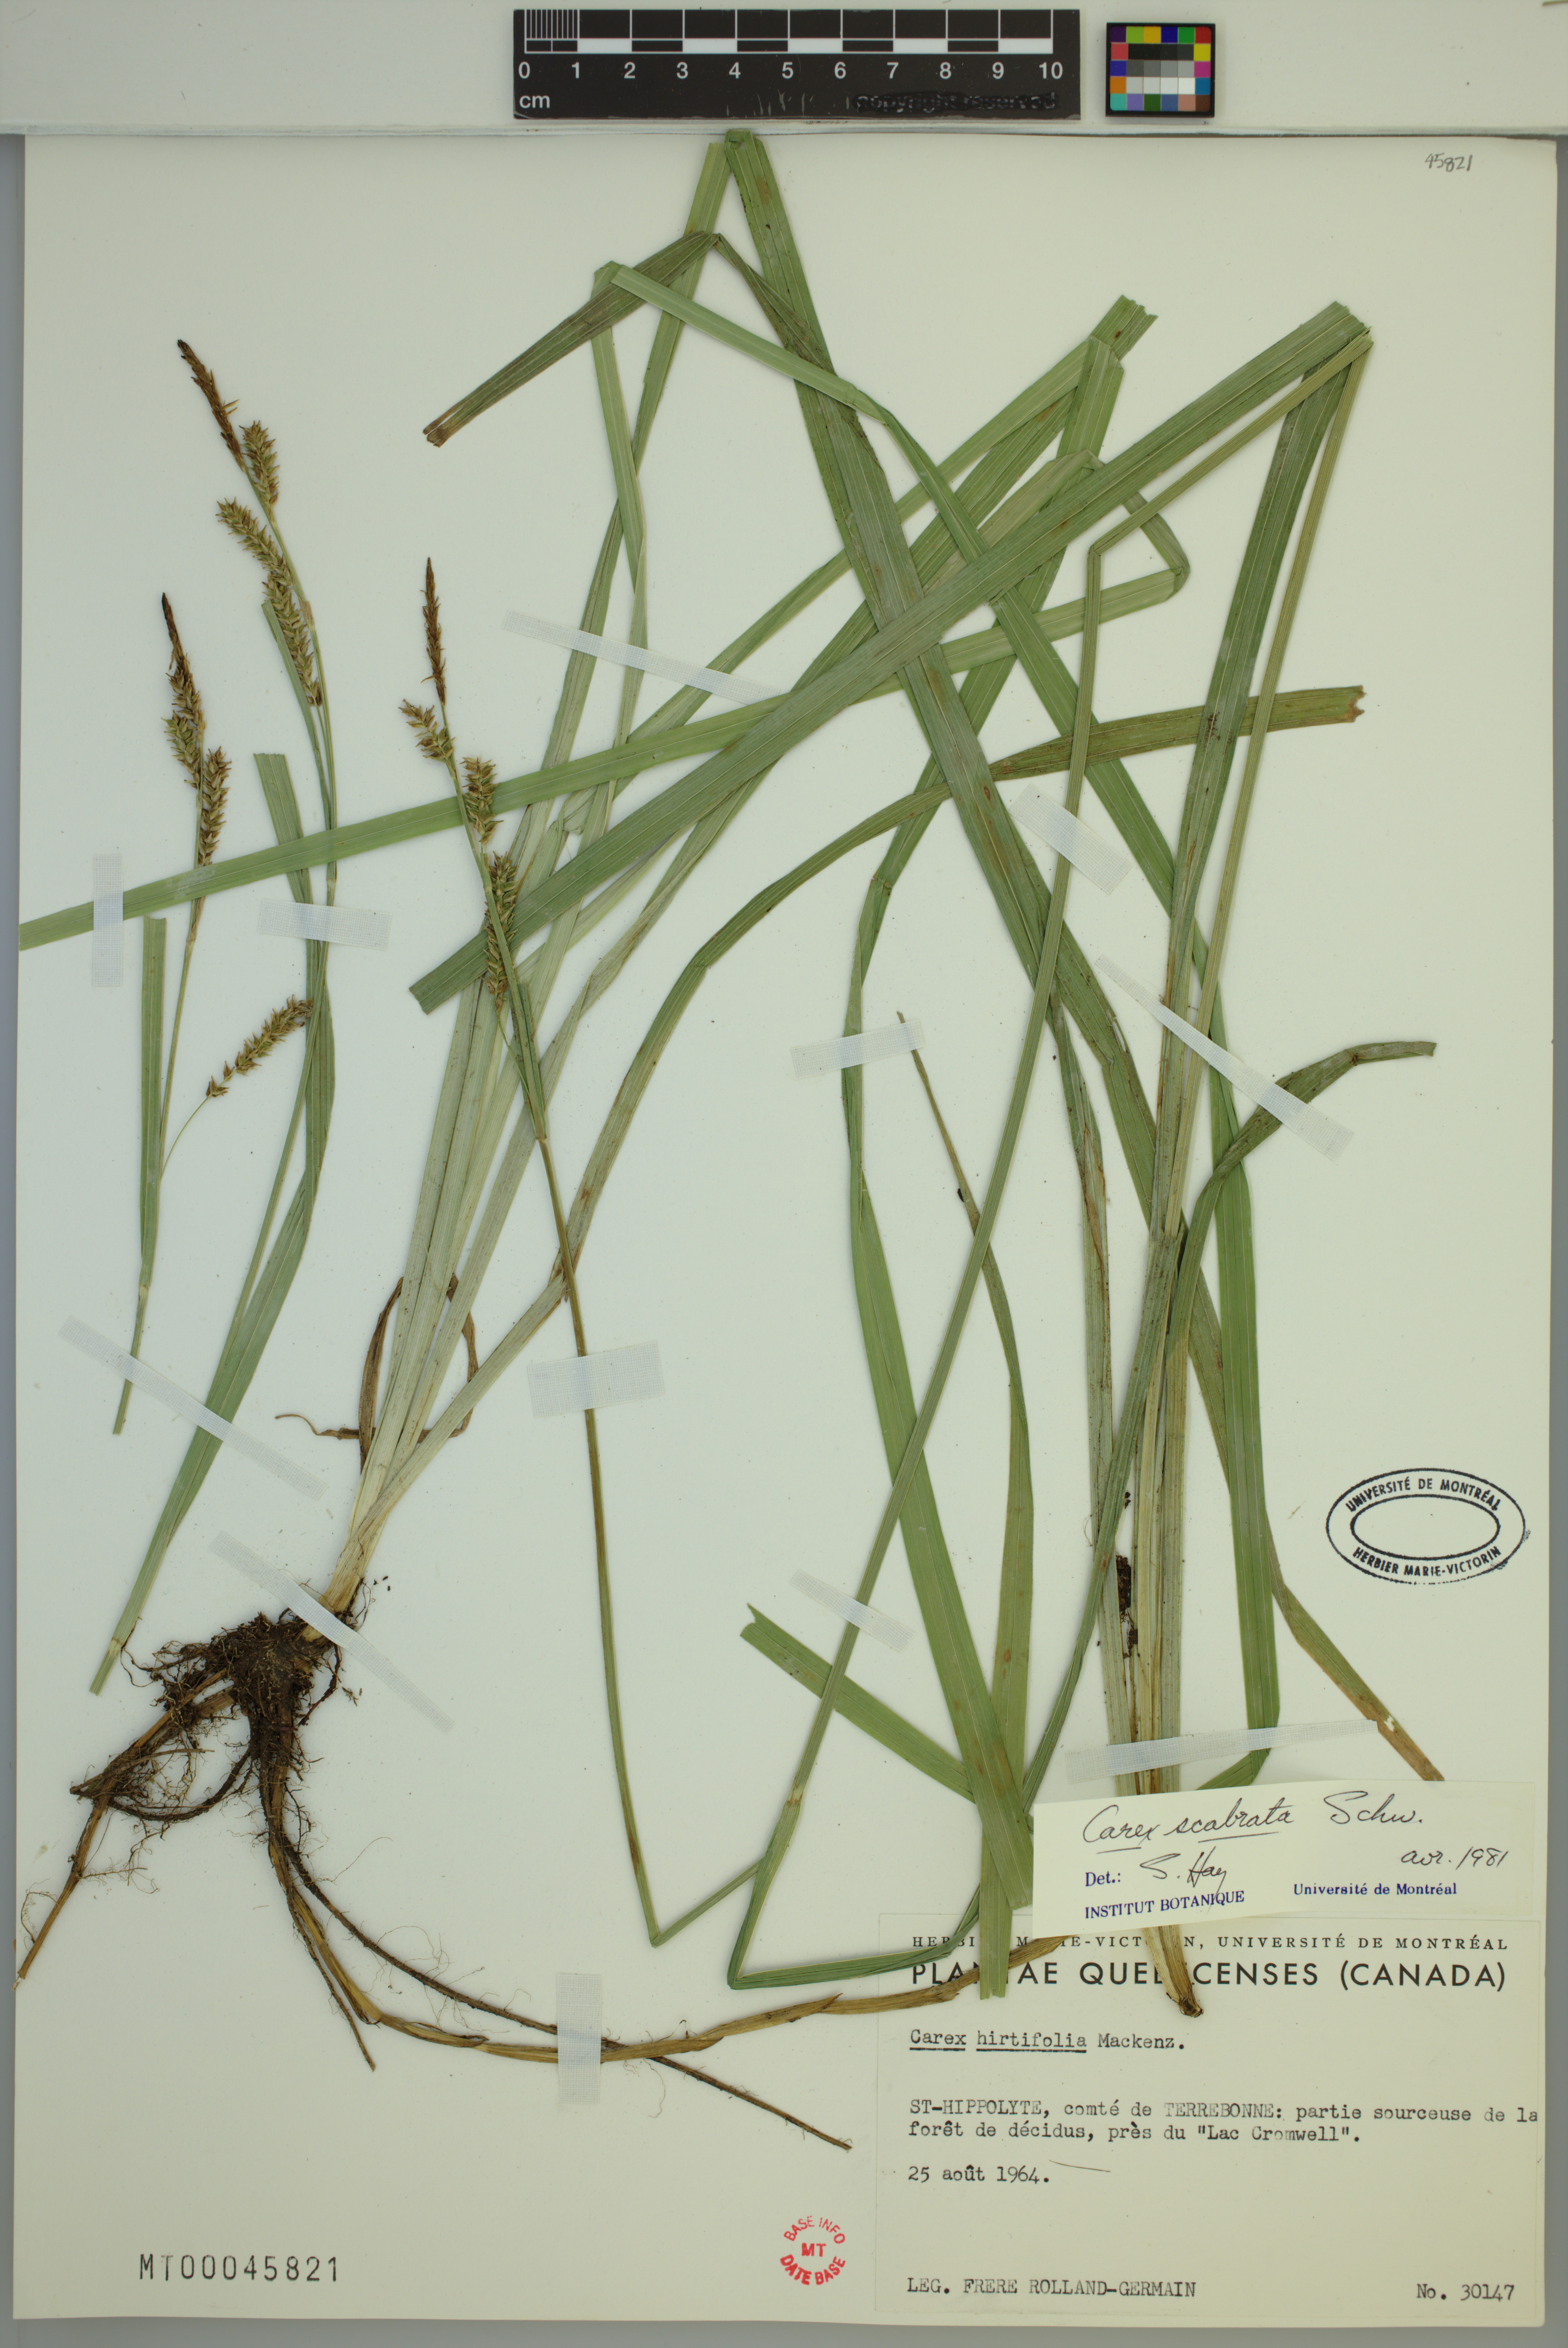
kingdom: Plantae
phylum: Tracheophyta
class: Liliopsida
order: Poales
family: Cyperaceae
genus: Carex
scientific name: Carex scabrata
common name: Eastern rough sedge
